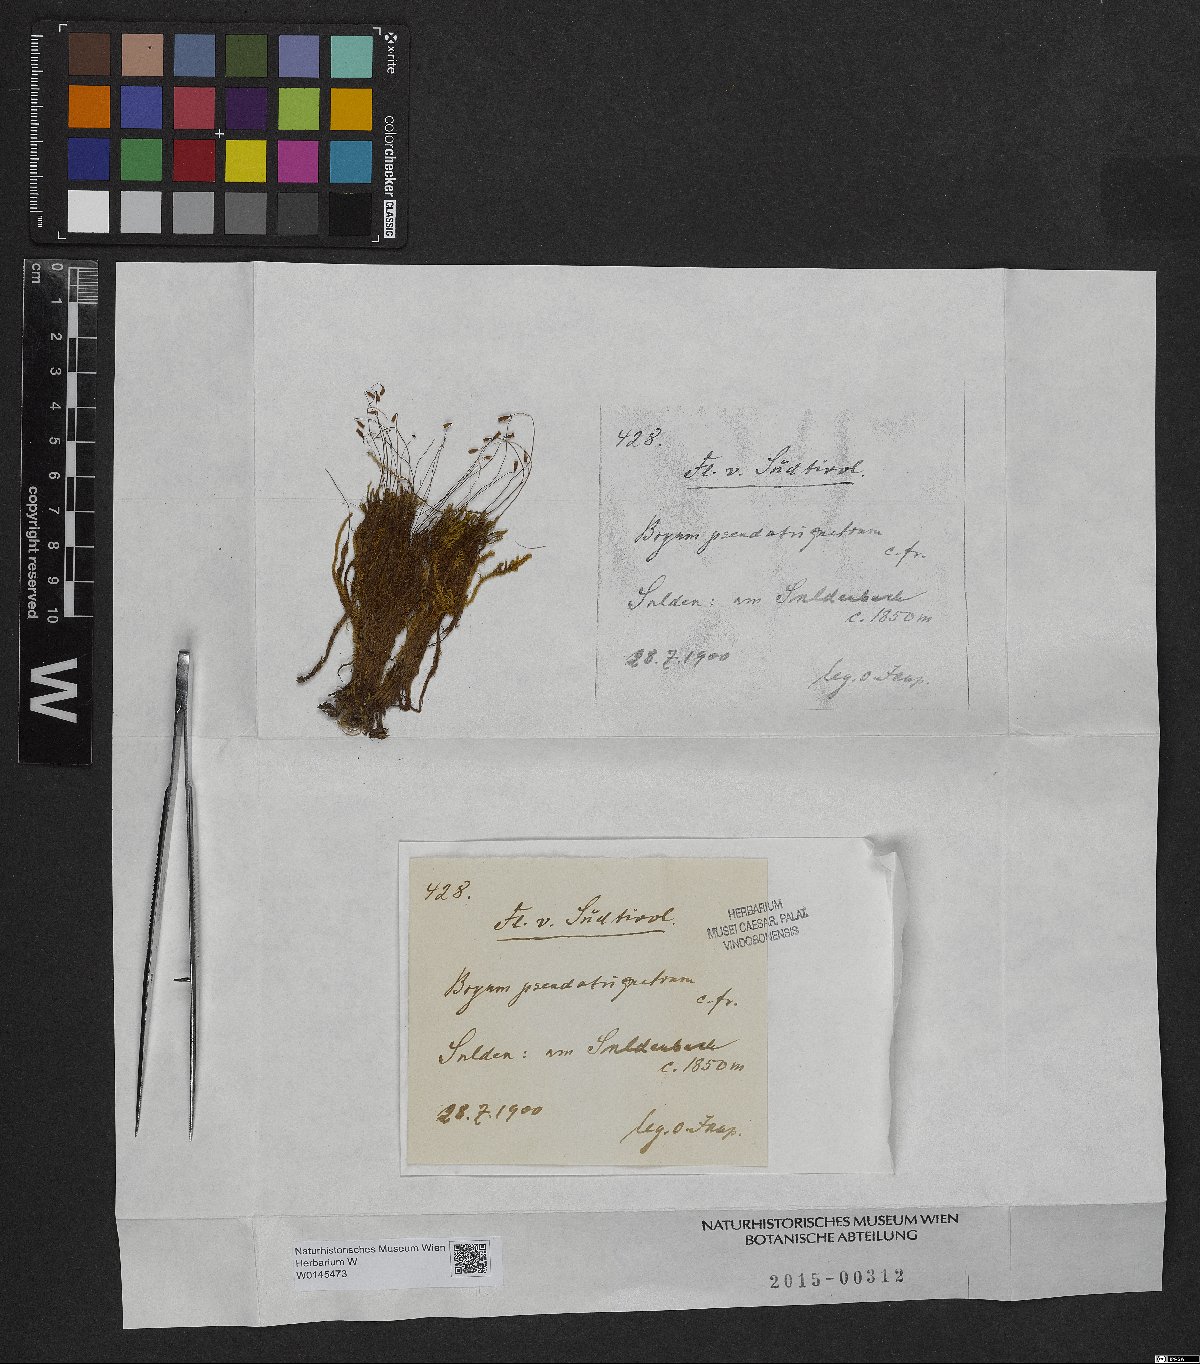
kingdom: Plantae
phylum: Bryophyta
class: Bryopsida
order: Bryales
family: Bryaceae
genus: Ptychostomum
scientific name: Ptychostomum pseudotriquetrum
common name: Long-leaved thread moss
